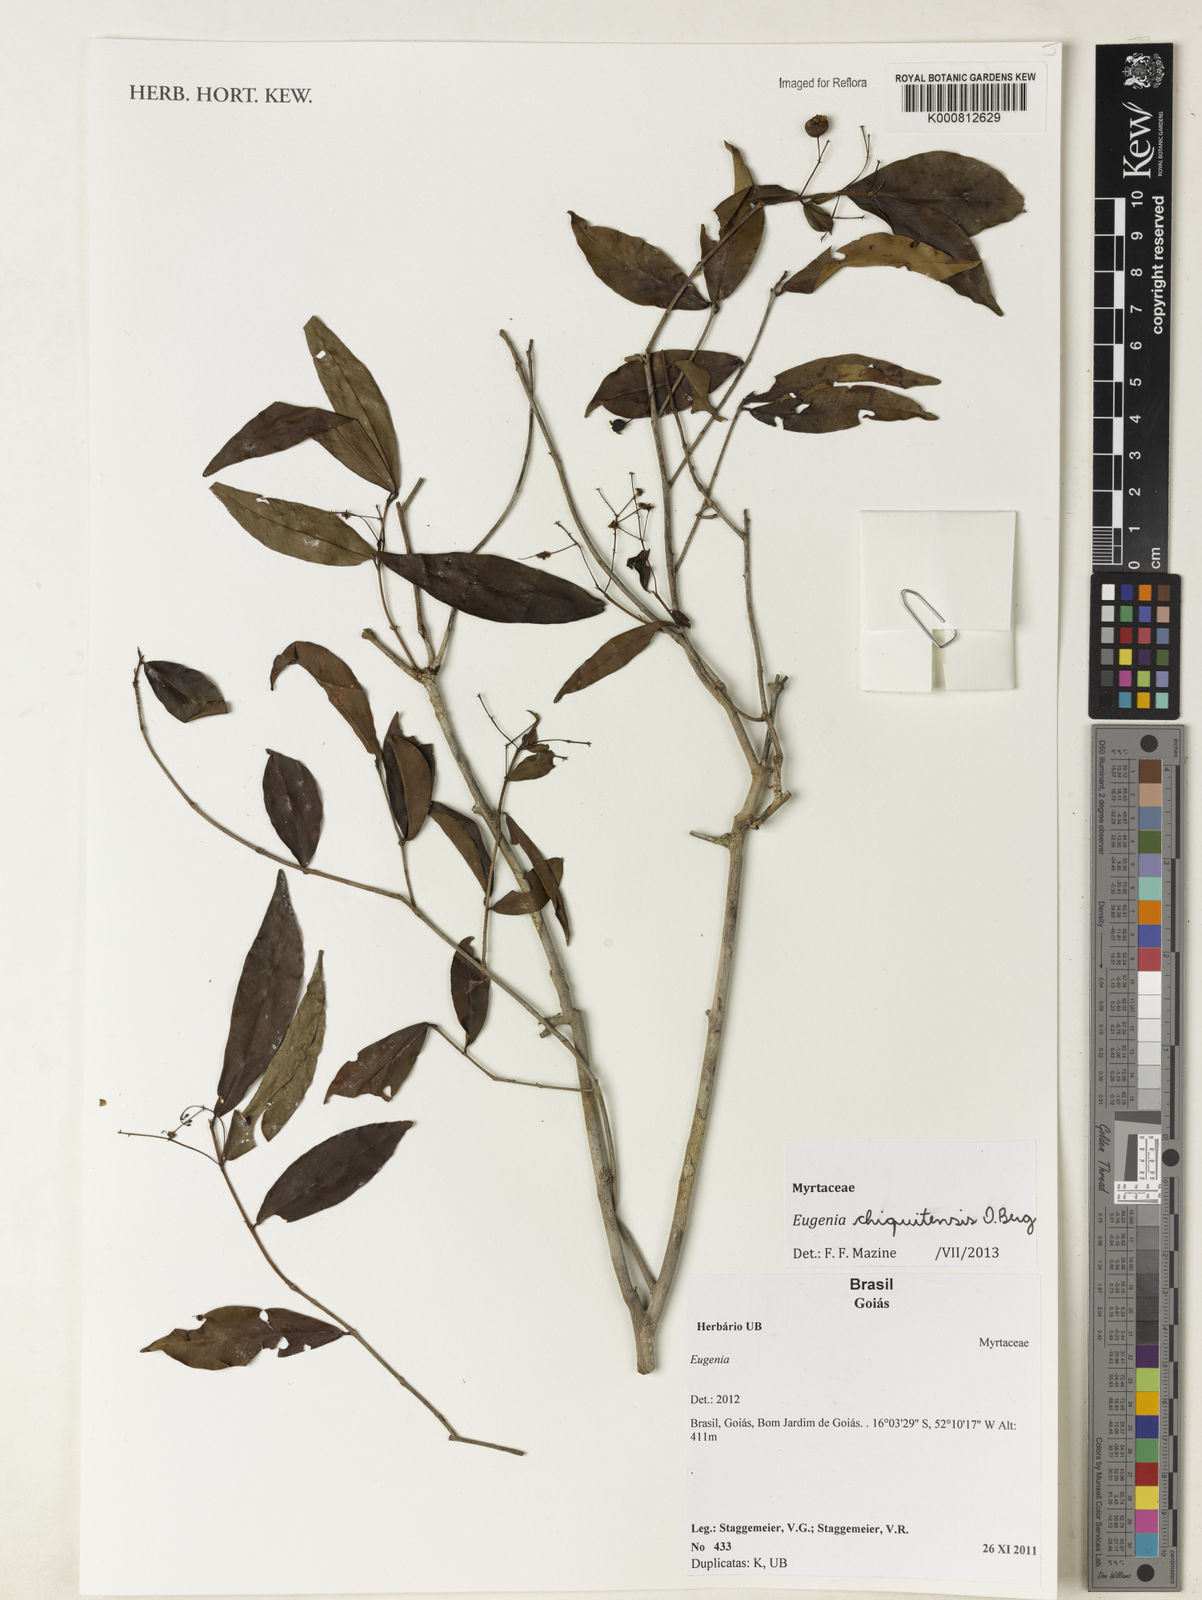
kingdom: Plantae
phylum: Tracheophyta
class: Magnoliopsida
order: Myrtales
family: Myrtaceae
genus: Eugenia
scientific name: Eugenia chiquitensis
